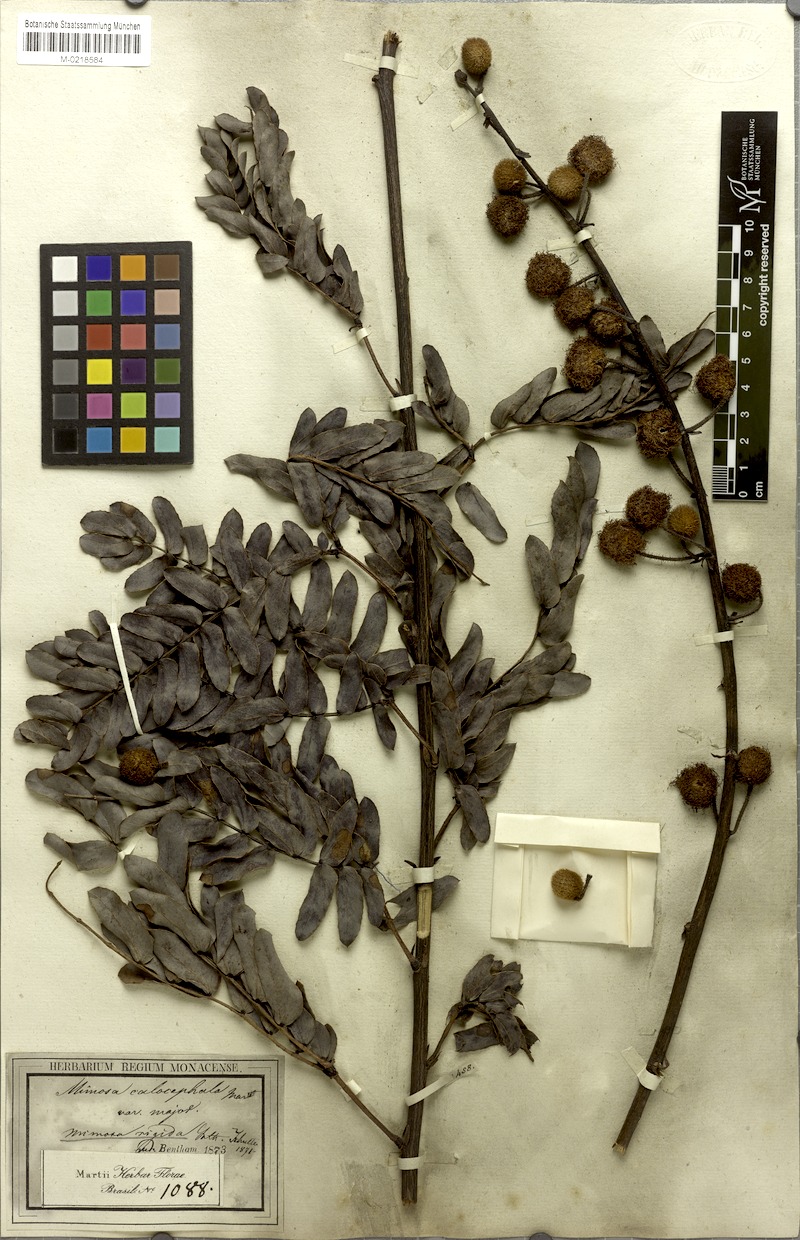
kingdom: Plantae
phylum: Tracheophyta
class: Magnoliopsida
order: Fabales
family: Fabaceae
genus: Mimosa
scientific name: Mimosa dolens
